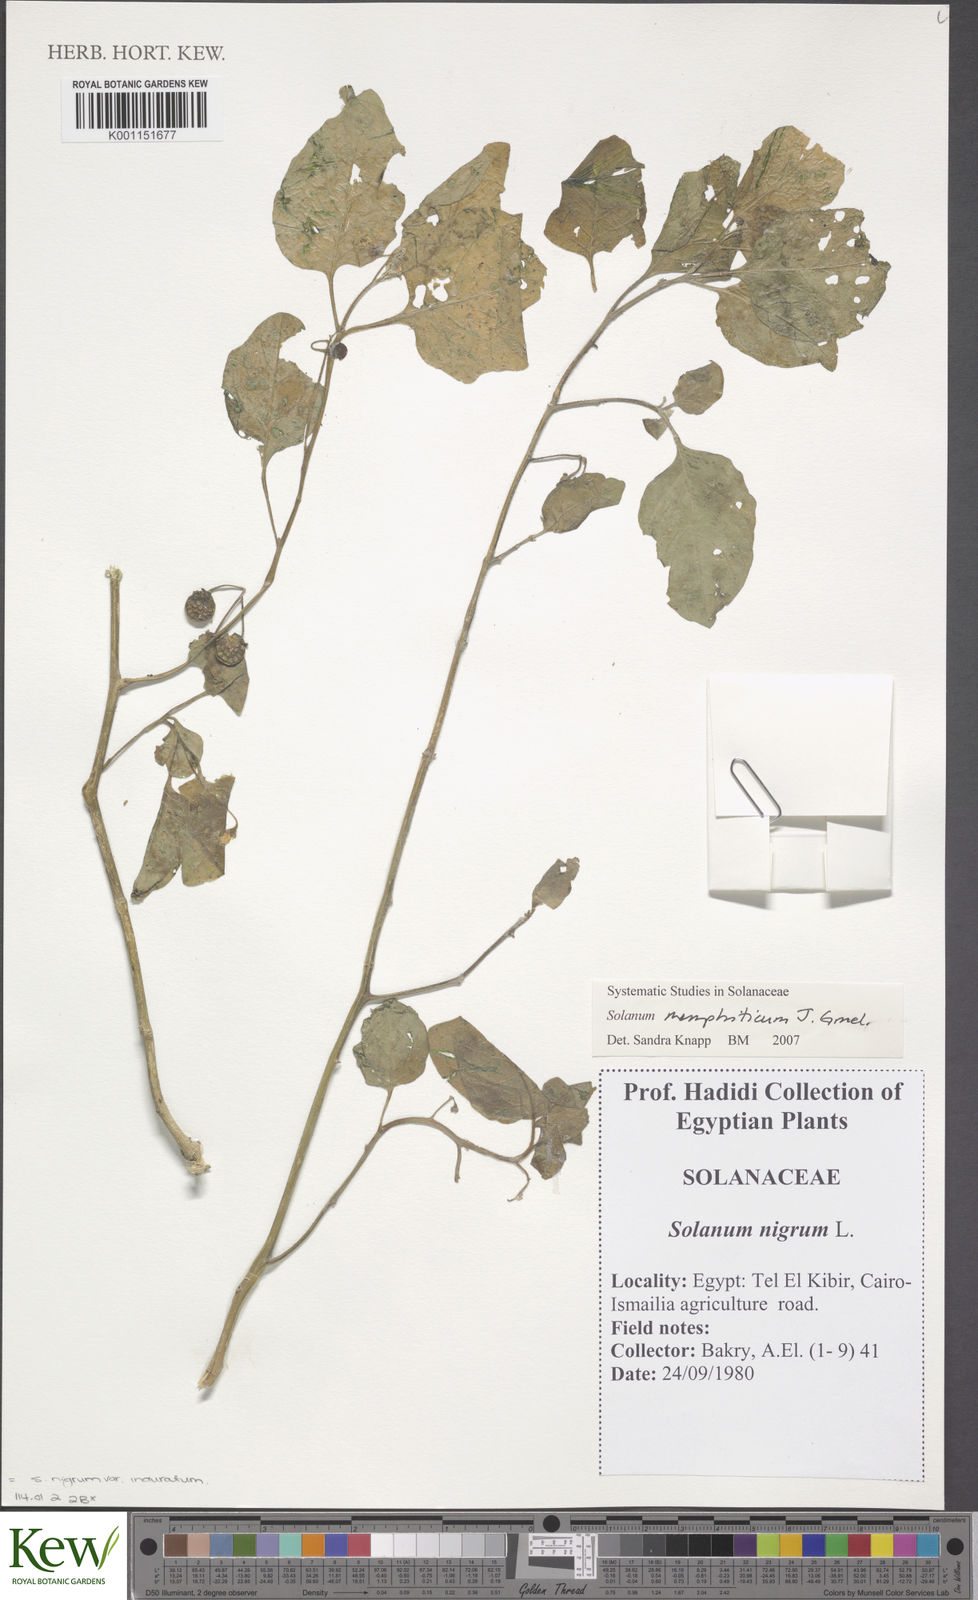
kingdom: Plantae
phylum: Tracheophyta
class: Magnoliopsida
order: Solanales
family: Solanaceae
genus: Solanum
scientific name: Solanum nigrum
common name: Black nightshade
